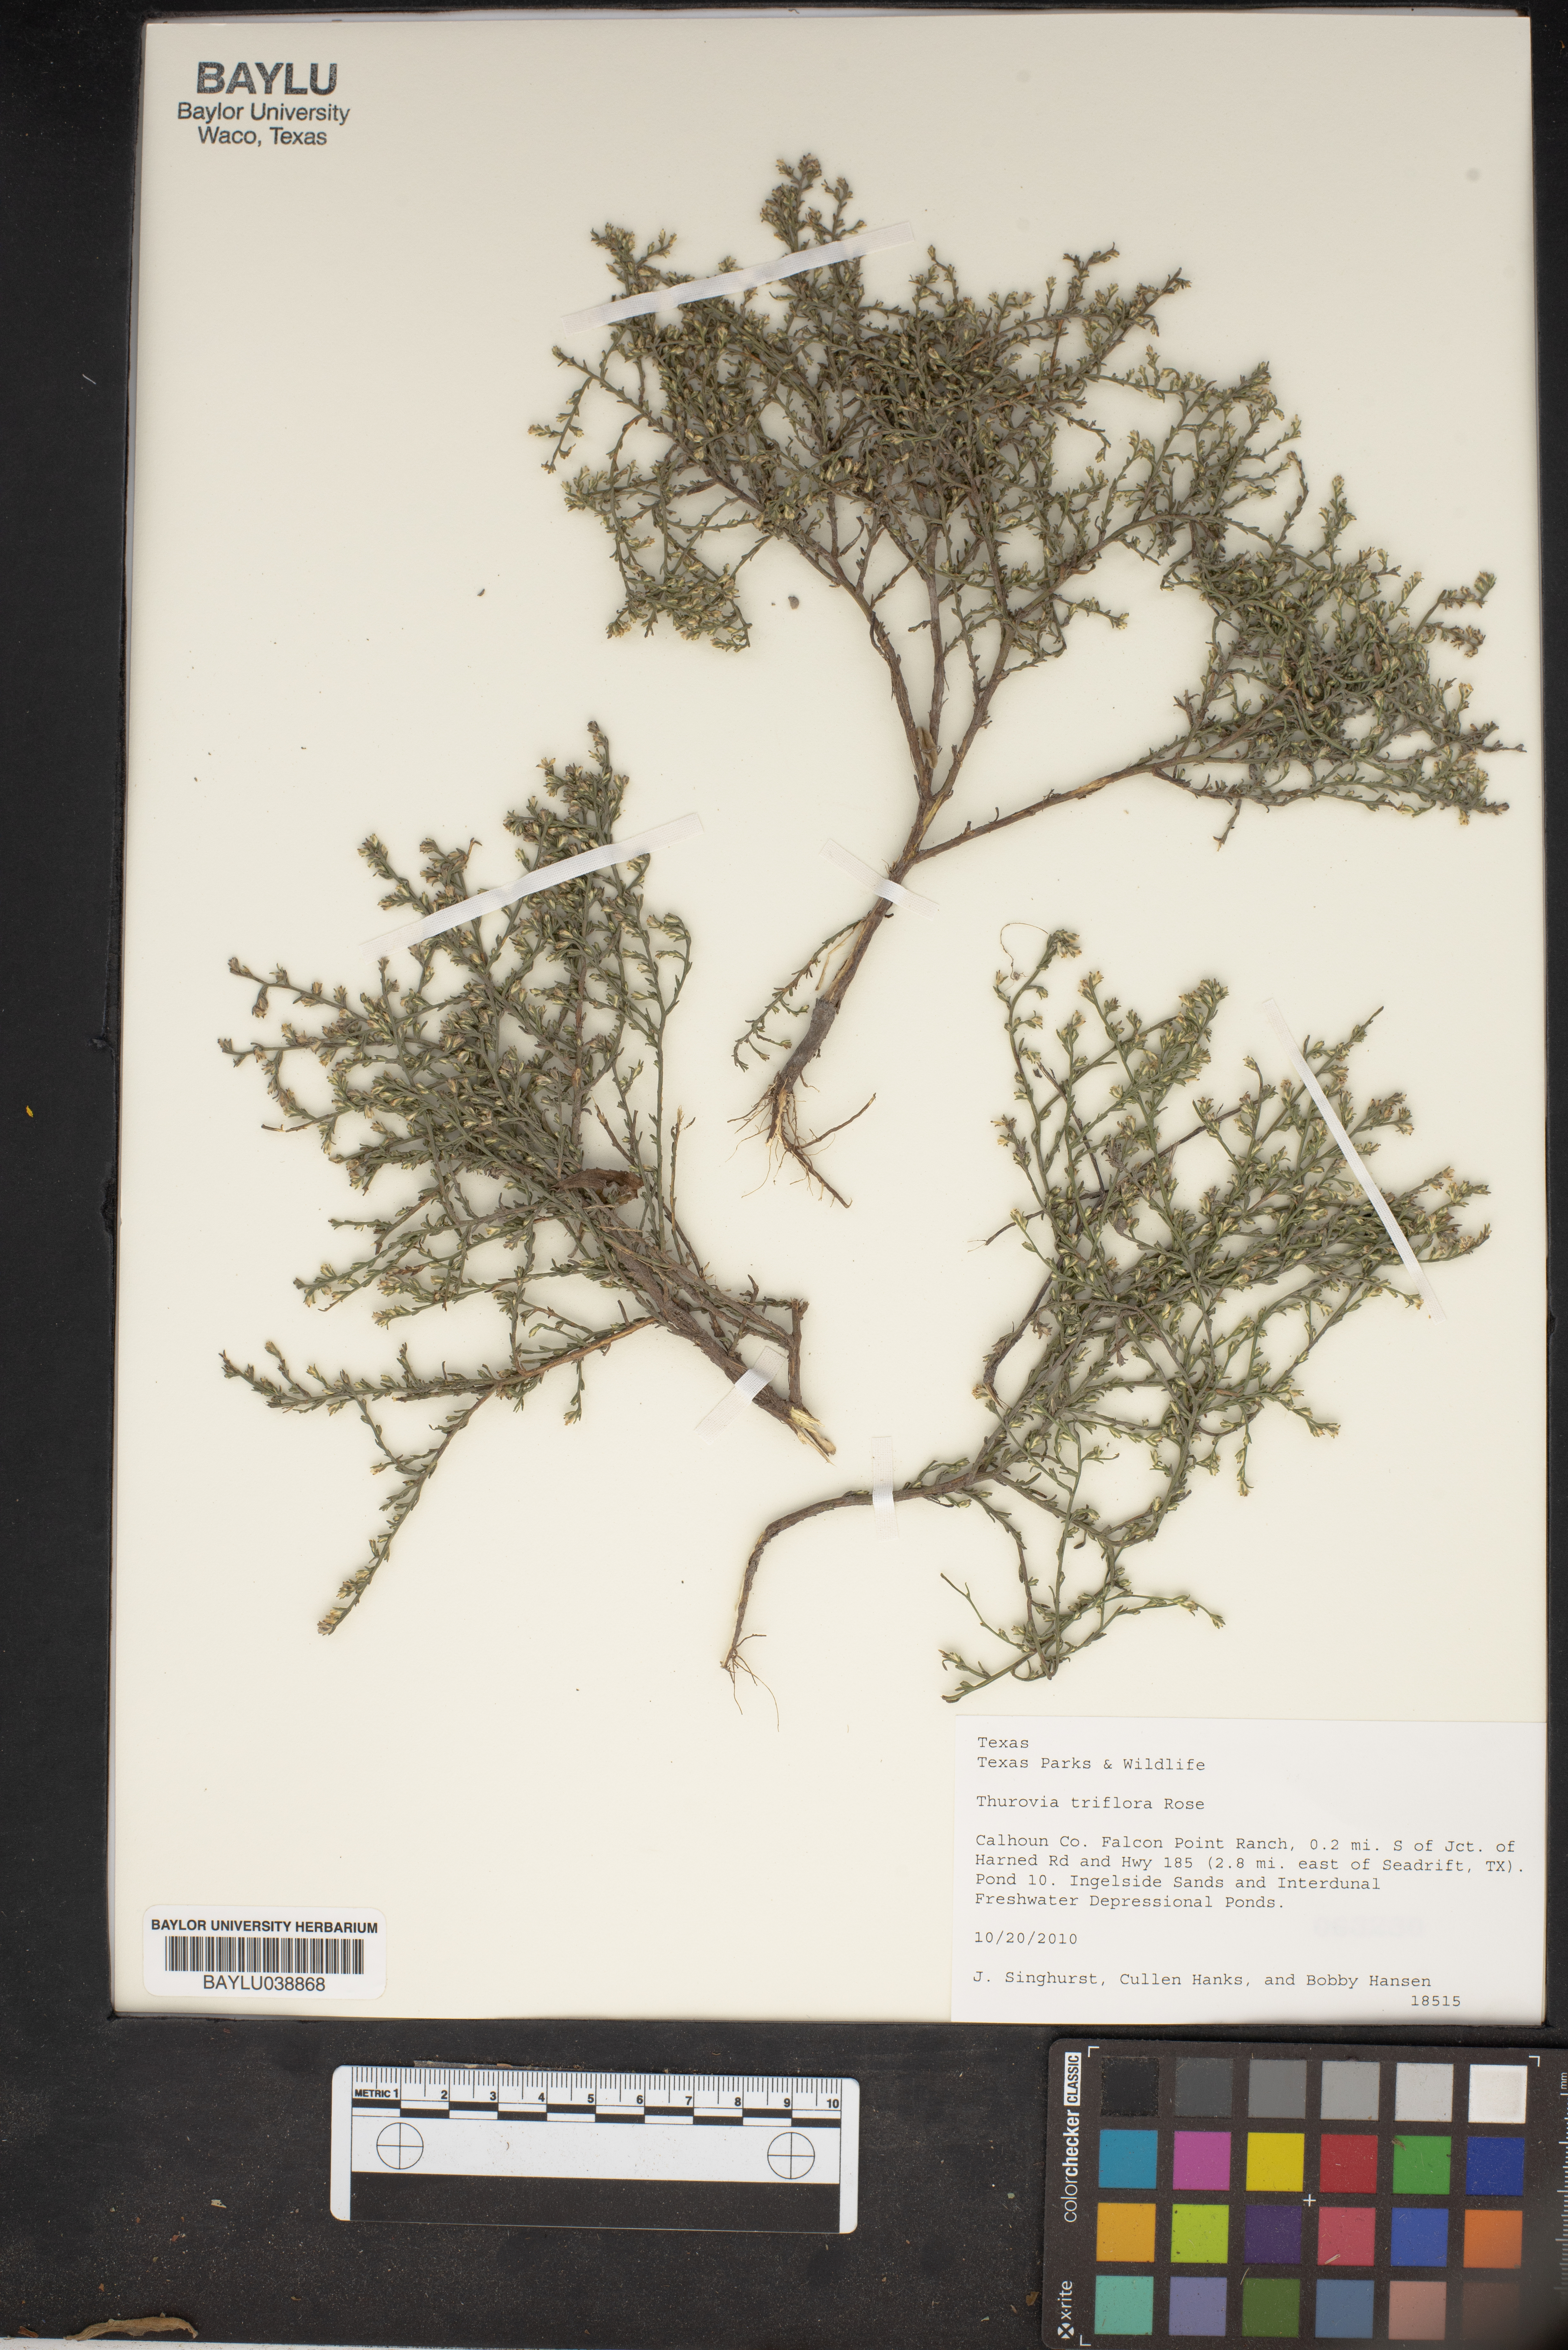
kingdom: Plantae
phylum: Tracheophyta
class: Magnoliopsida
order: Asterales
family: Asteraceae
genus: Thurovia
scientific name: Thurovia triflora
